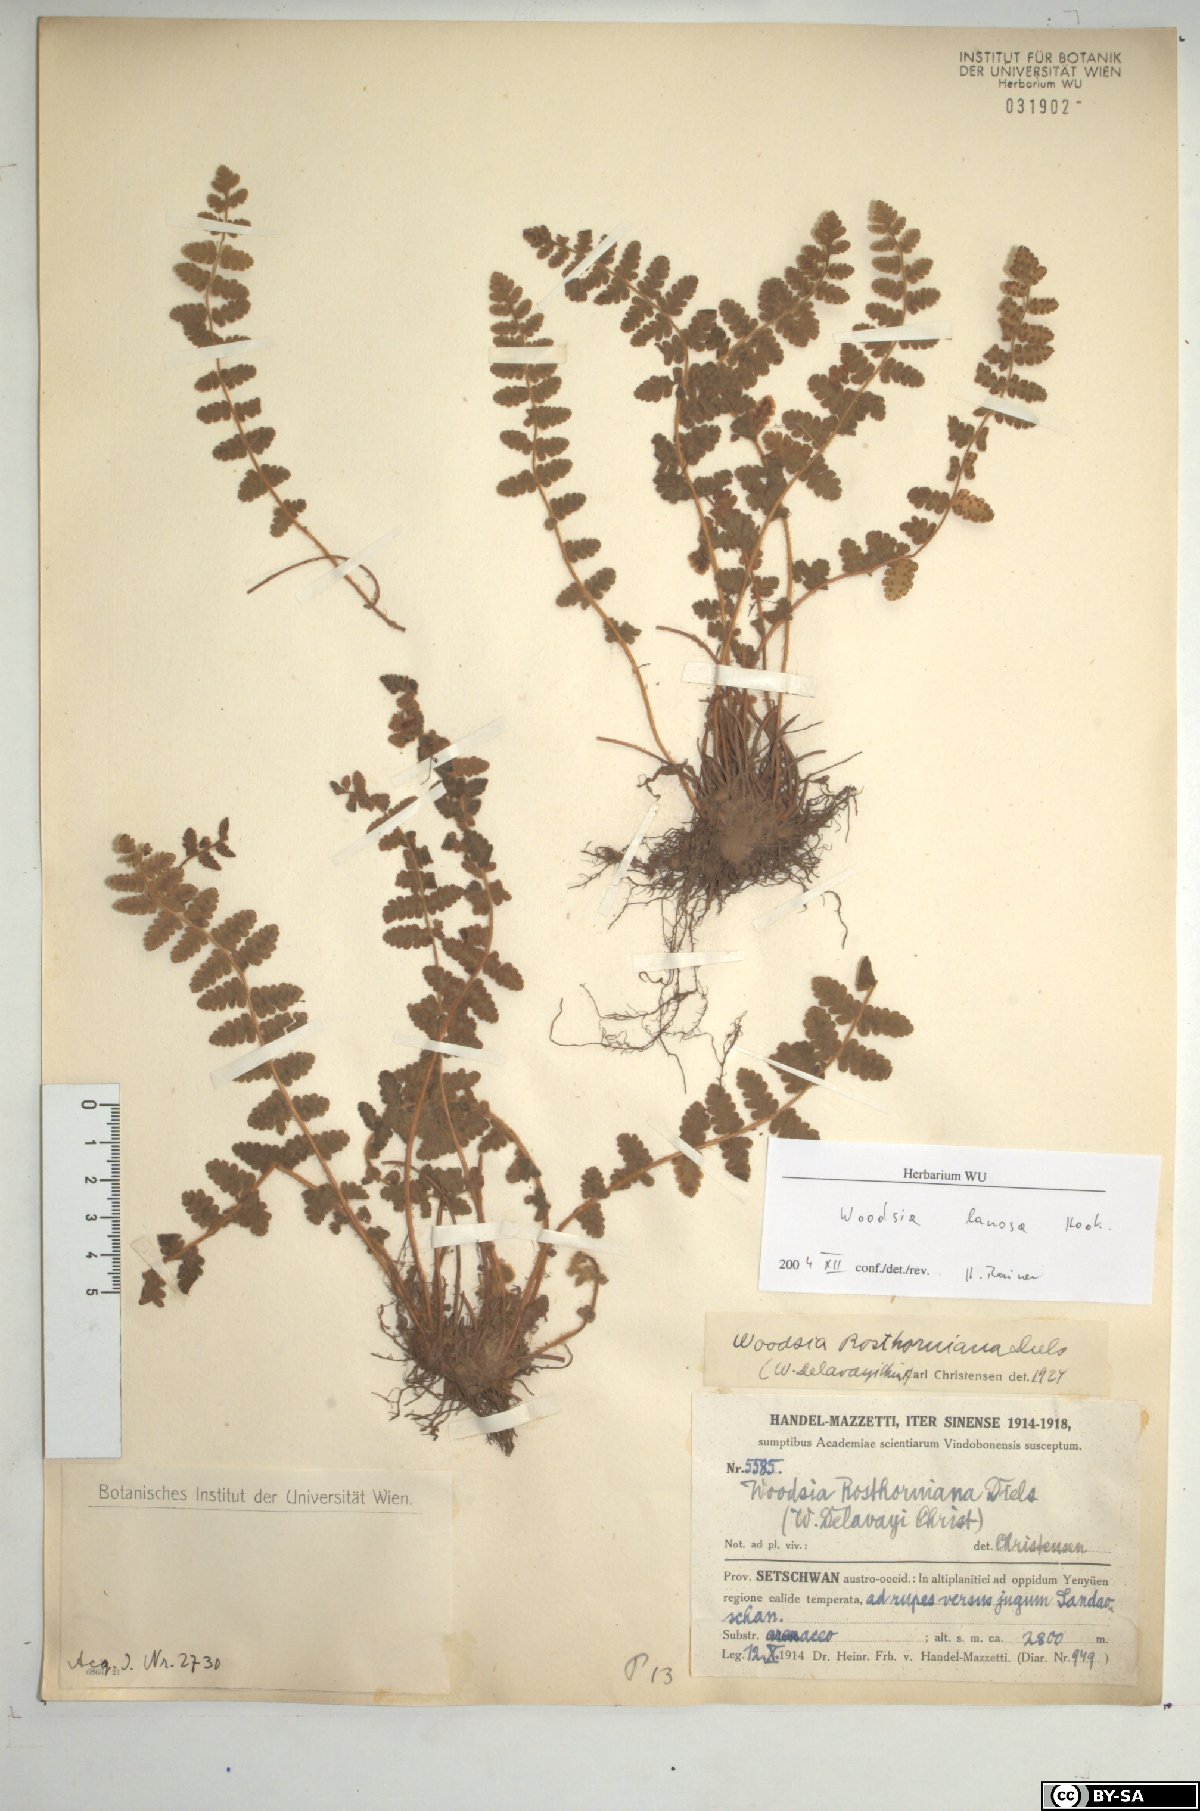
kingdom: Plantae
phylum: Tracheophyta
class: Polypodiopsida
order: Polypodiales
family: Woodsiaceae
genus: Woodsia
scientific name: Woodsia rosthorniana
